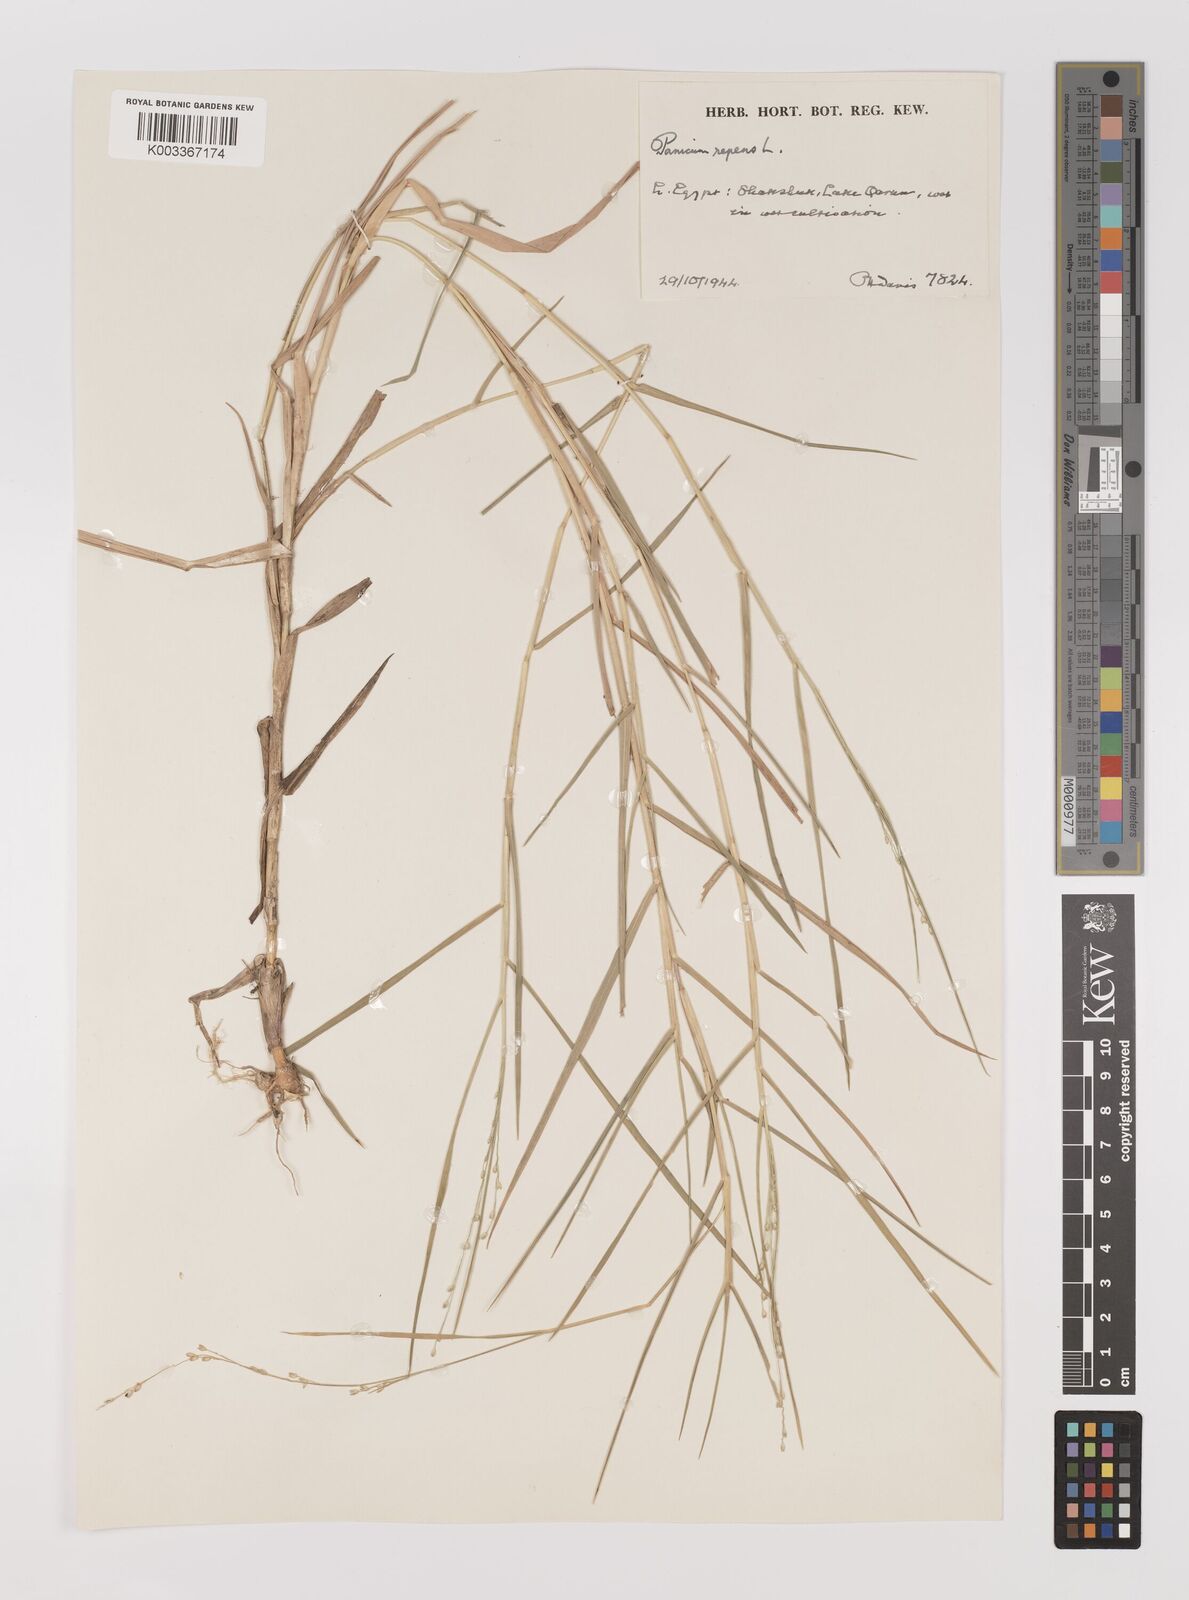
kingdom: Plantae
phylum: Tracheophyta
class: Liliopsida
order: Poales
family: Poaceae
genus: Panicum
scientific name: Panicum repens
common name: Torpedo grass
